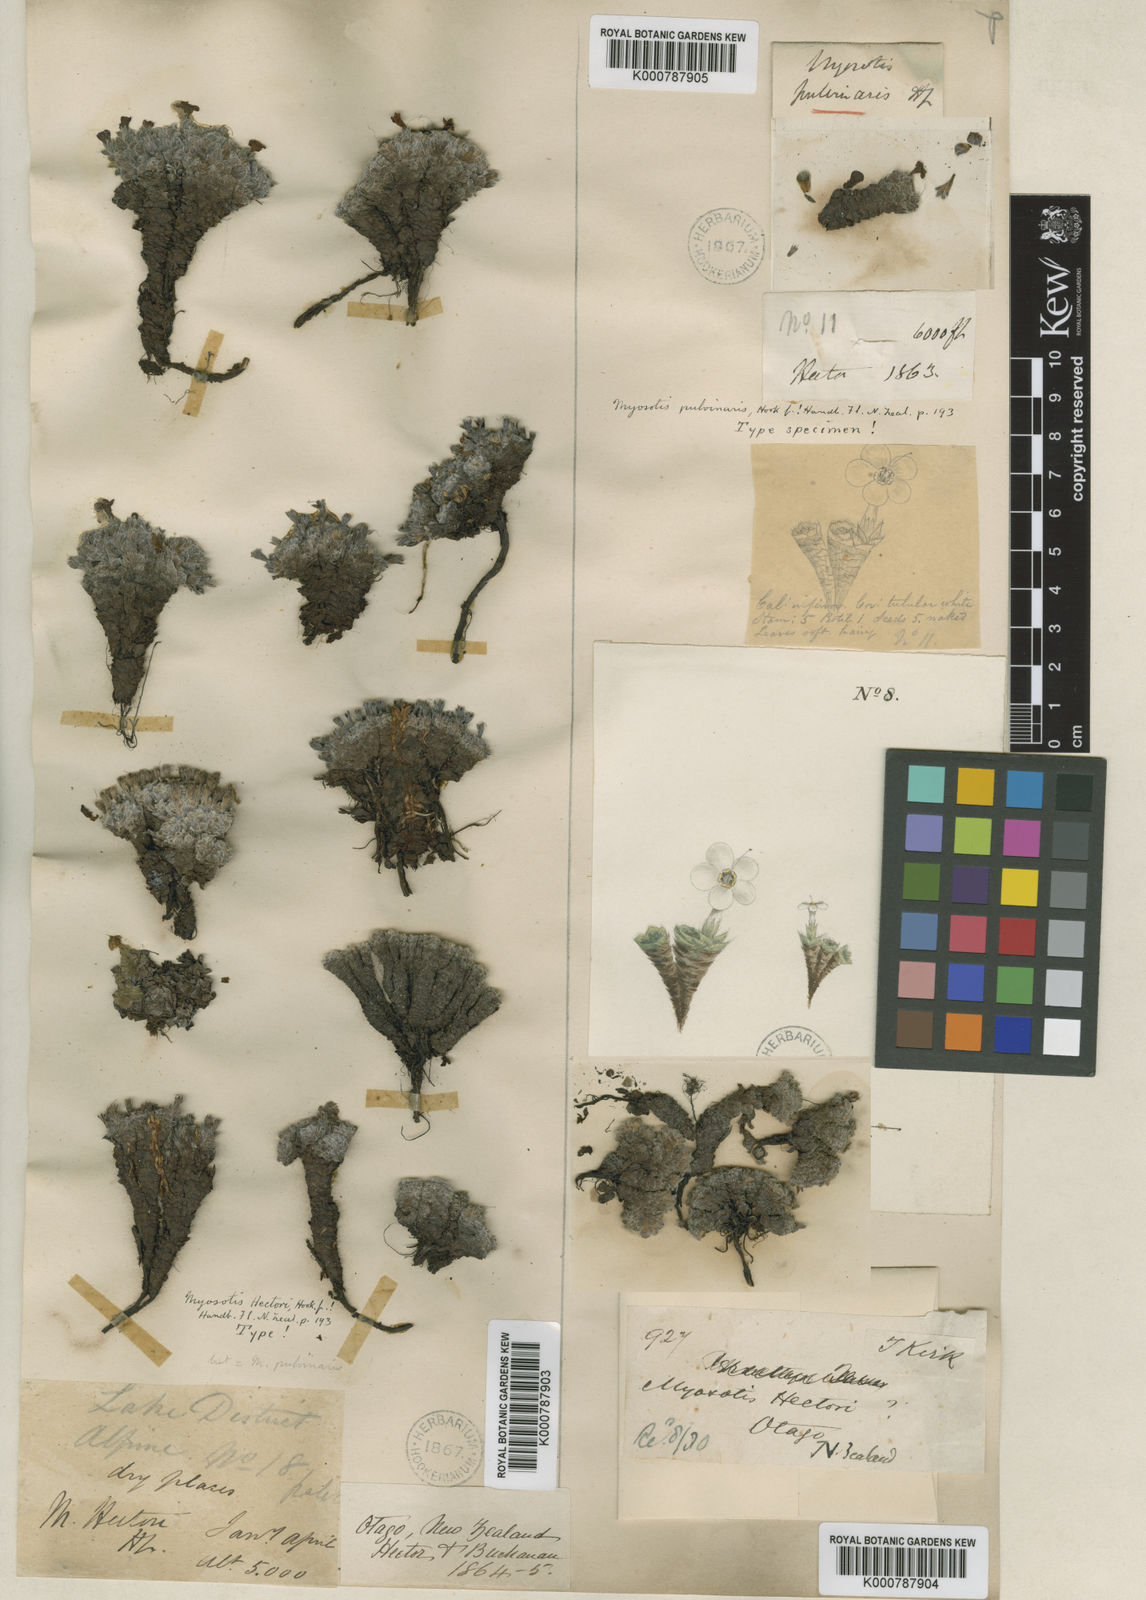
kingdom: Plantae
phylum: Tracheophyta
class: Magnoliopsida
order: Boraginales
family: Boraginaceae
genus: Myosotis
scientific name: Myosotis pulvinaris
